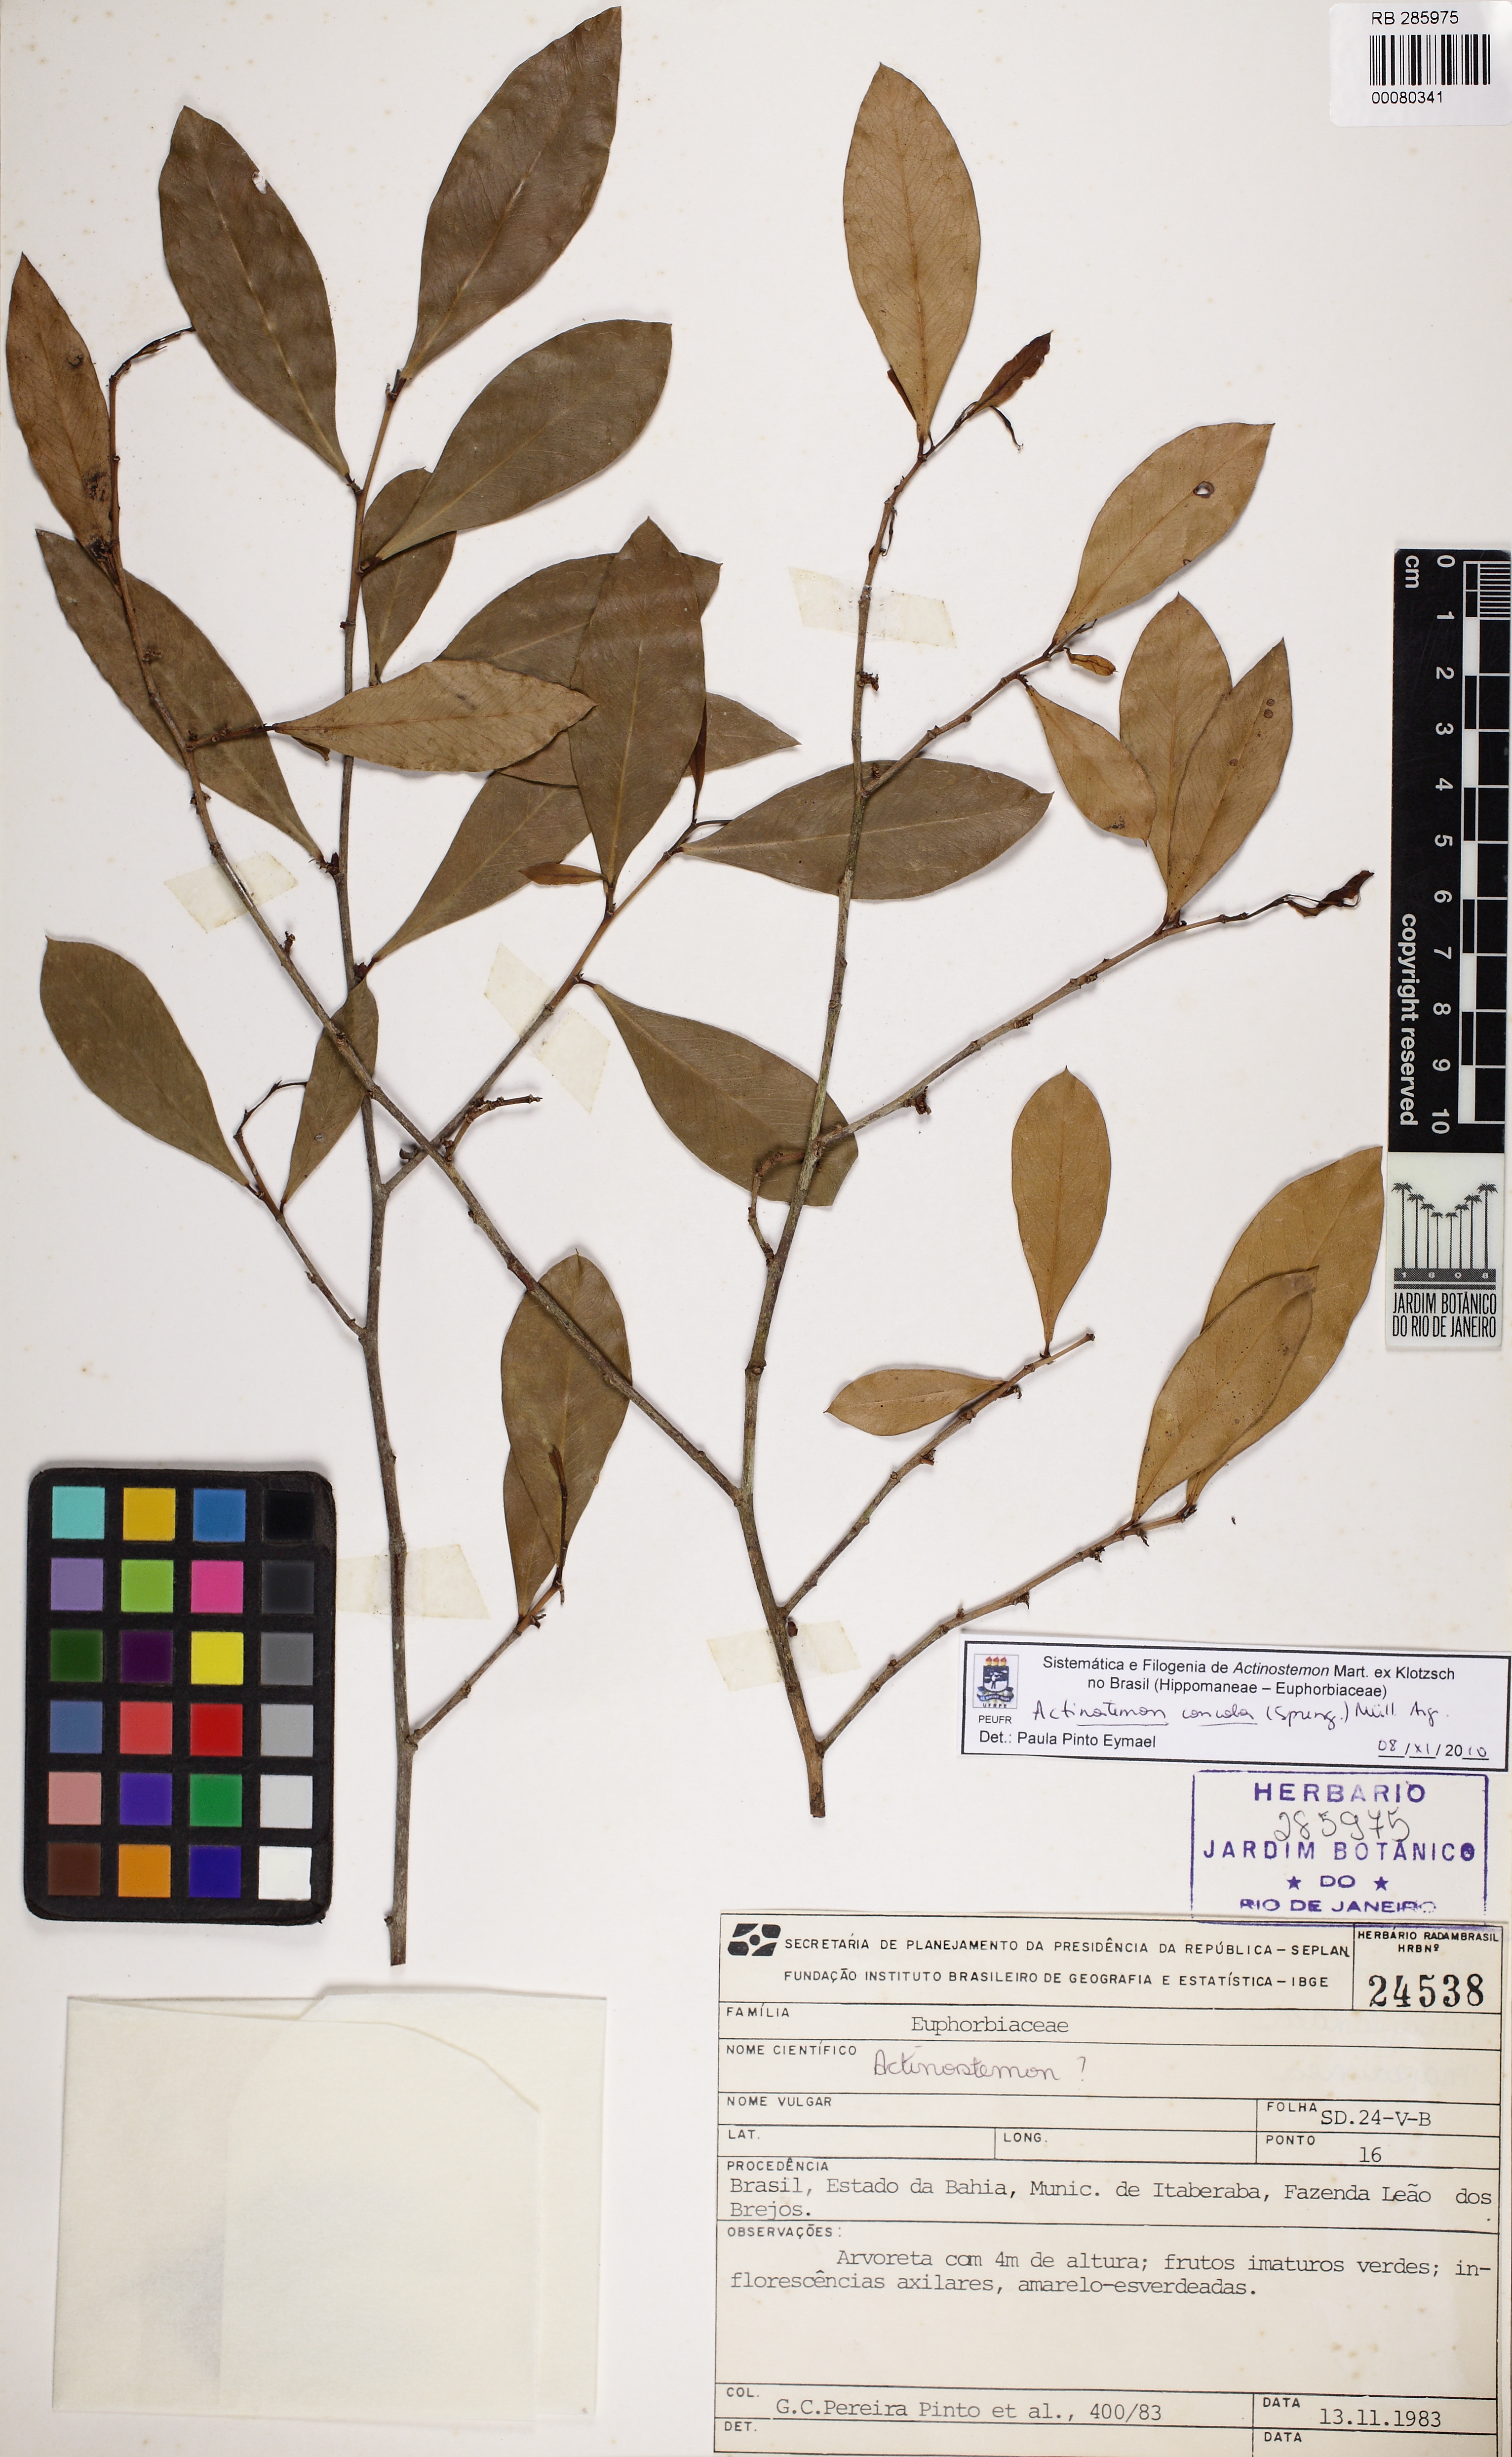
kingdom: Plantae
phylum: Tracheophyta
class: Magnoliopsida
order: Malpighiales
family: Euphorbiaceae
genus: Actinostemon
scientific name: Actinostemon concolor
